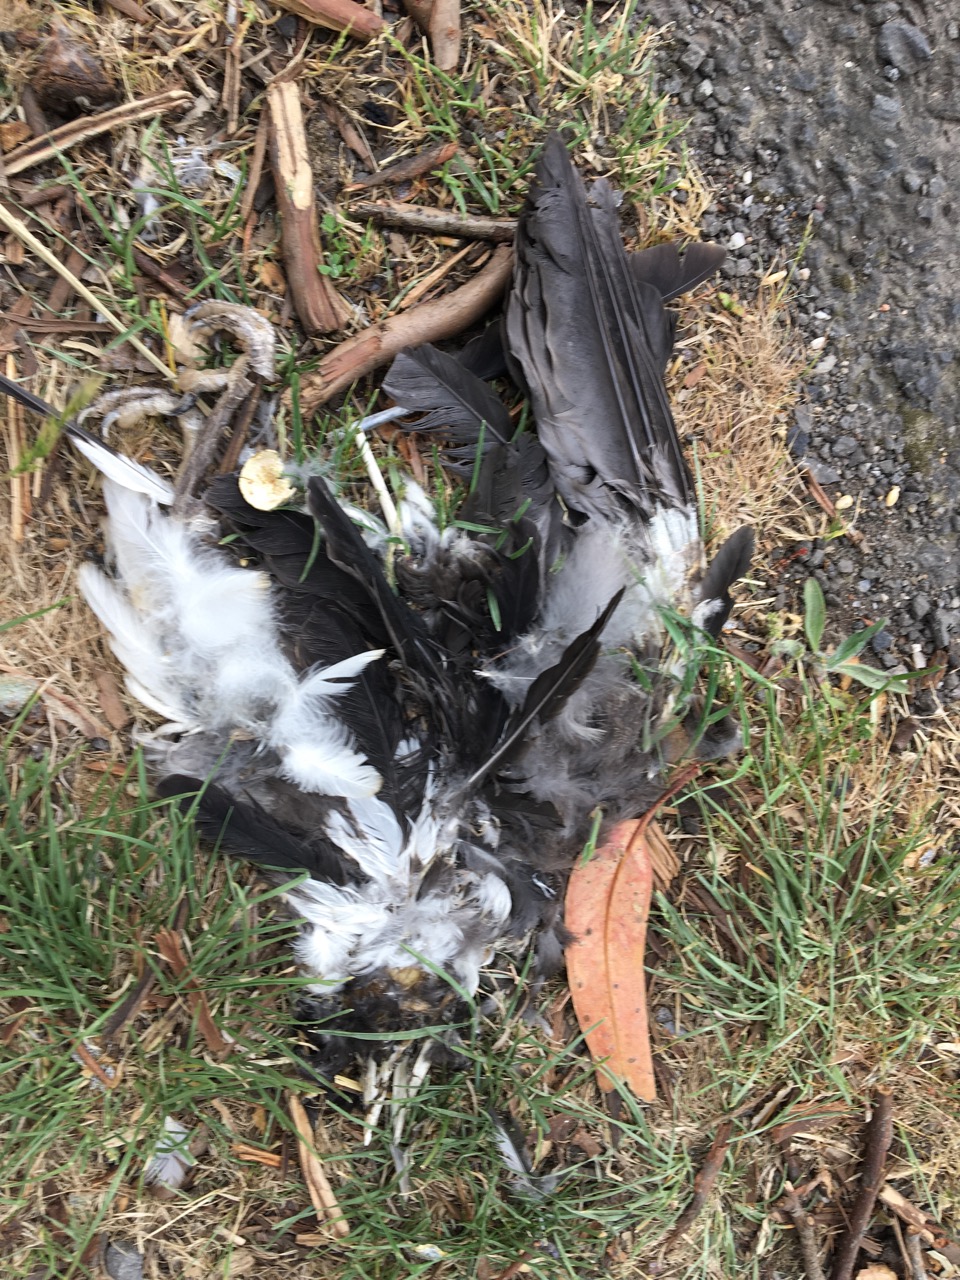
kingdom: Animalia
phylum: Chordata
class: Aves
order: Passeriformes
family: Cracticidae
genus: Gymnorhina
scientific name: Gymnorhina tibicen
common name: Australian magpie
